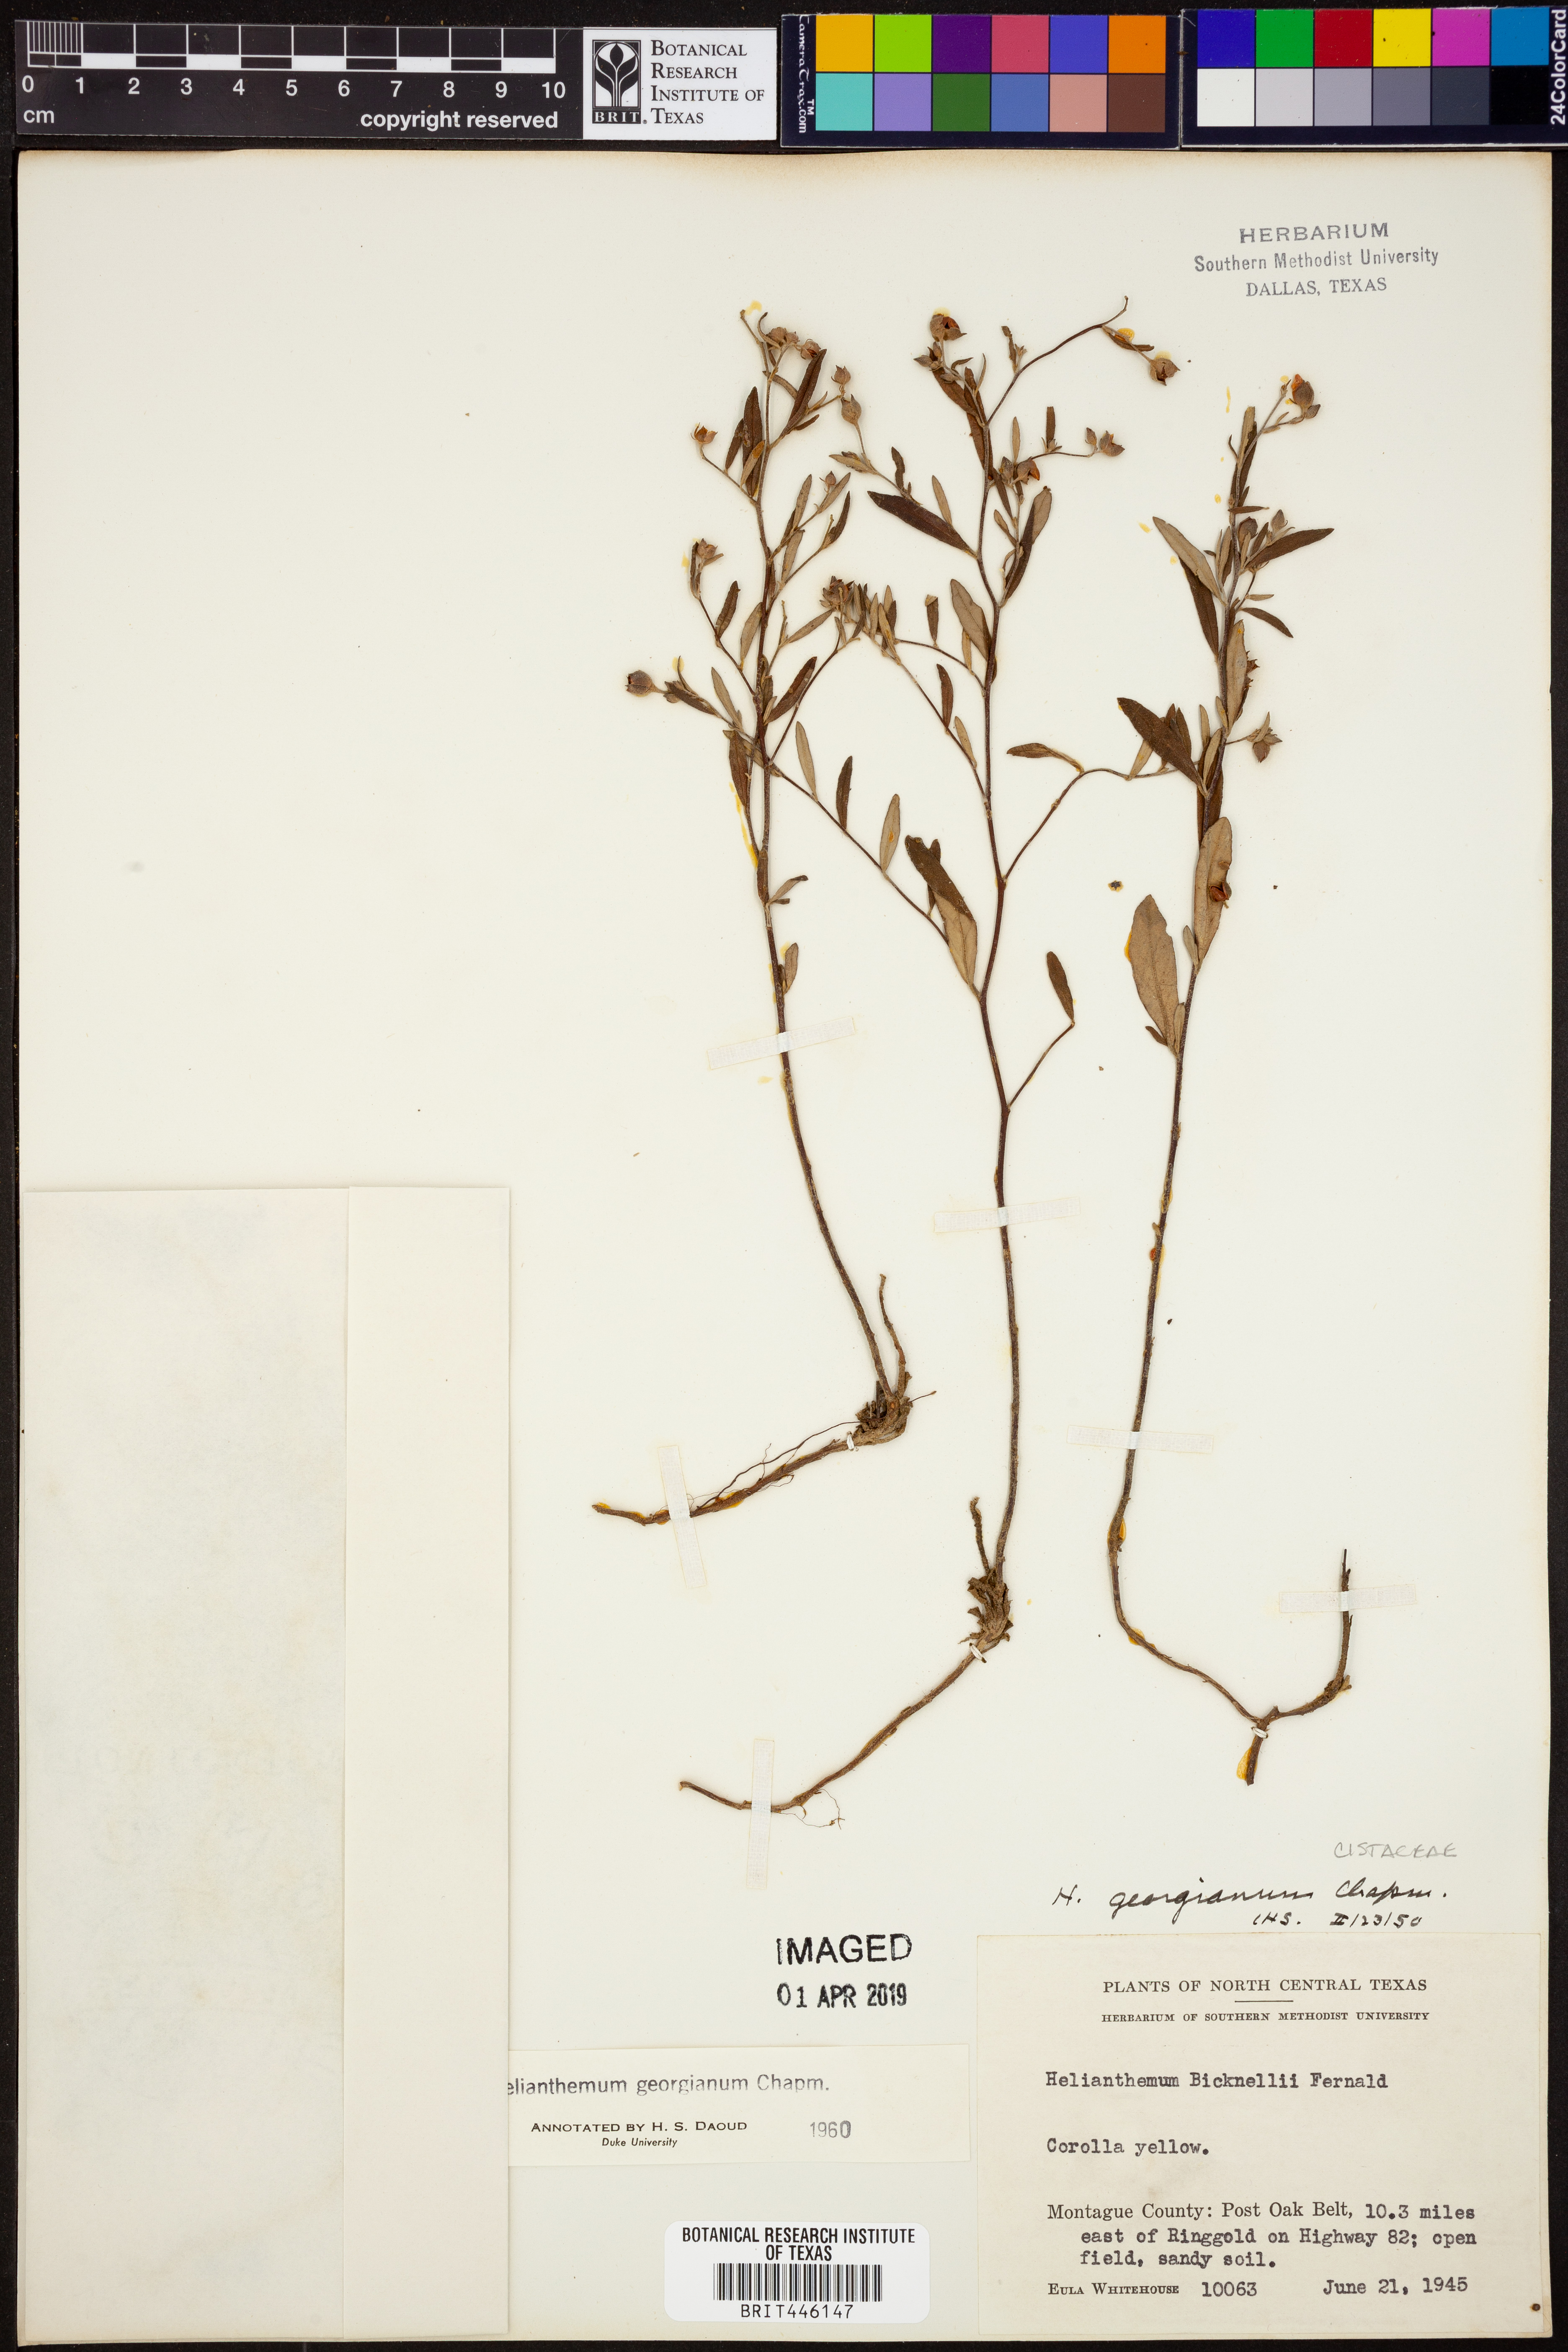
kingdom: Plantae
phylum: Tracheophyta
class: Magnoliopsida
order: Malvales
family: Cistaceae
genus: Crocanthemum
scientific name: Crocanthemum georgianum
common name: Georgia frostweed
